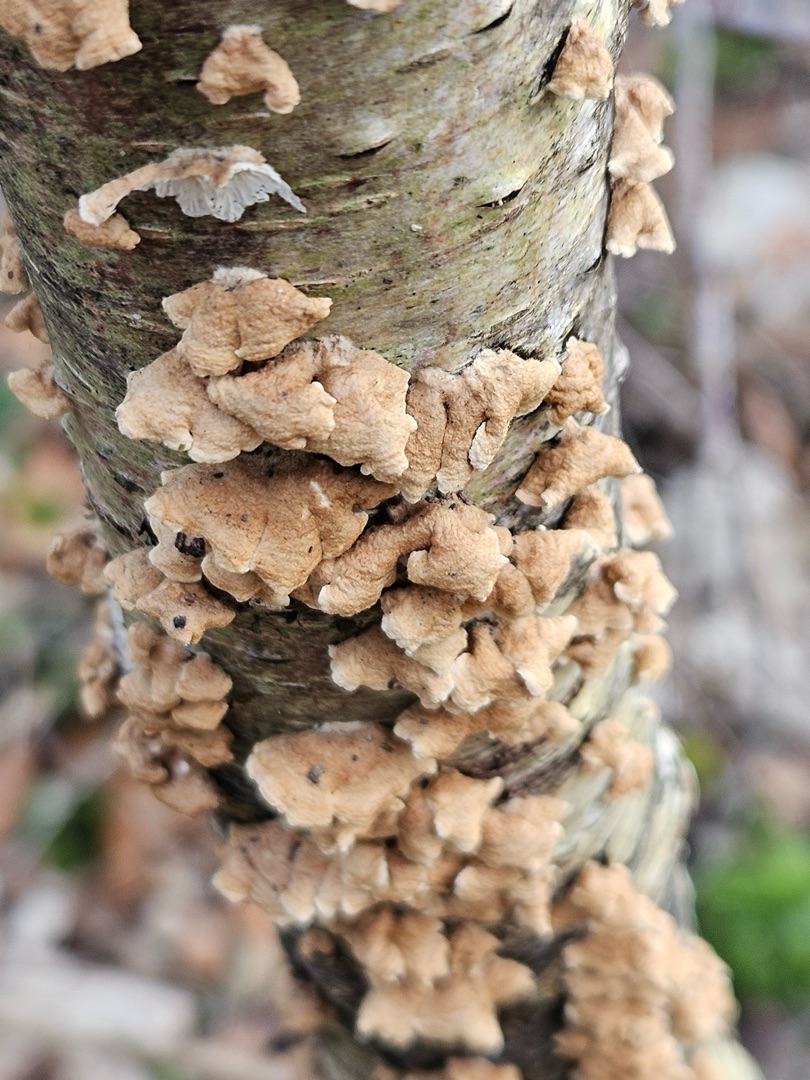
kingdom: Fungi
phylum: Basidiomycota
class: Agaricomycetes
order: Amylocorticiales
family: Amylocorticiaceae
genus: Plicaturopsis
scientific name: Plicaturopsis crispa
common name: Krusblad
